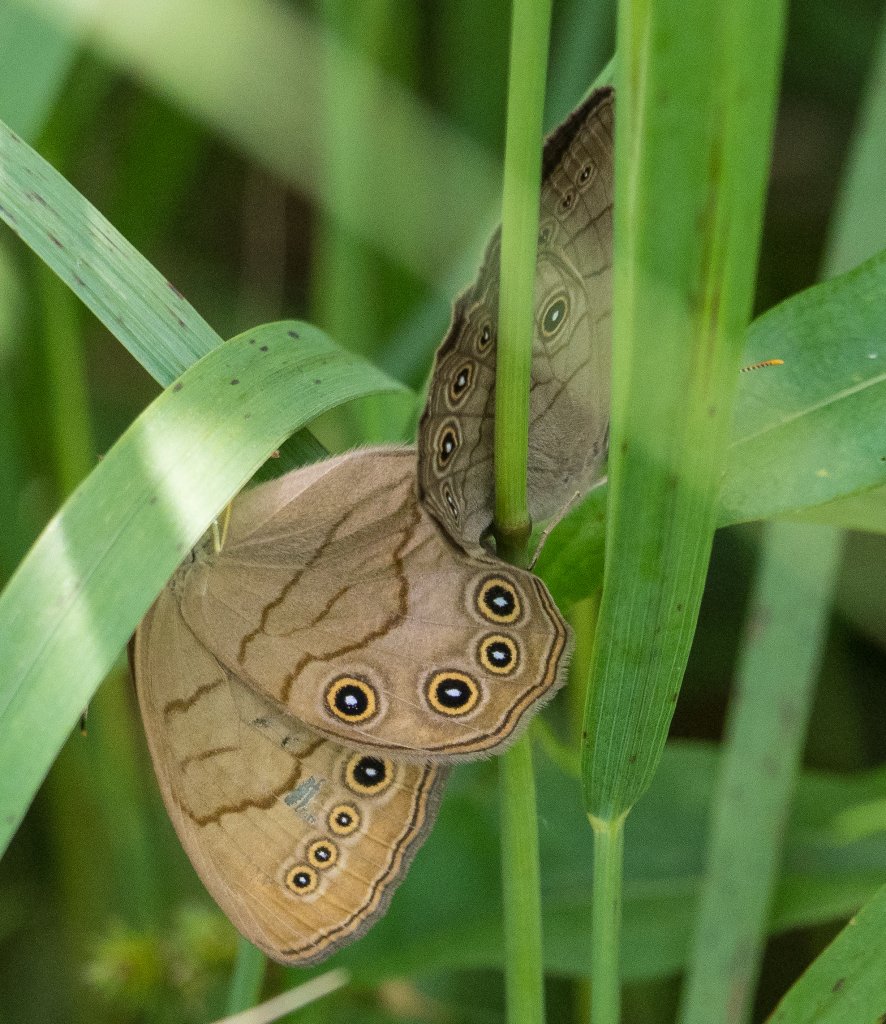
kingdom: Animalia
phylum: Arthropoda
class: Insecta
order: Lepidoptera
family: Nymphalidae
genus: Lethe
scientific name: Lethe eurydice
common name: Appalachian Eyed Brown
